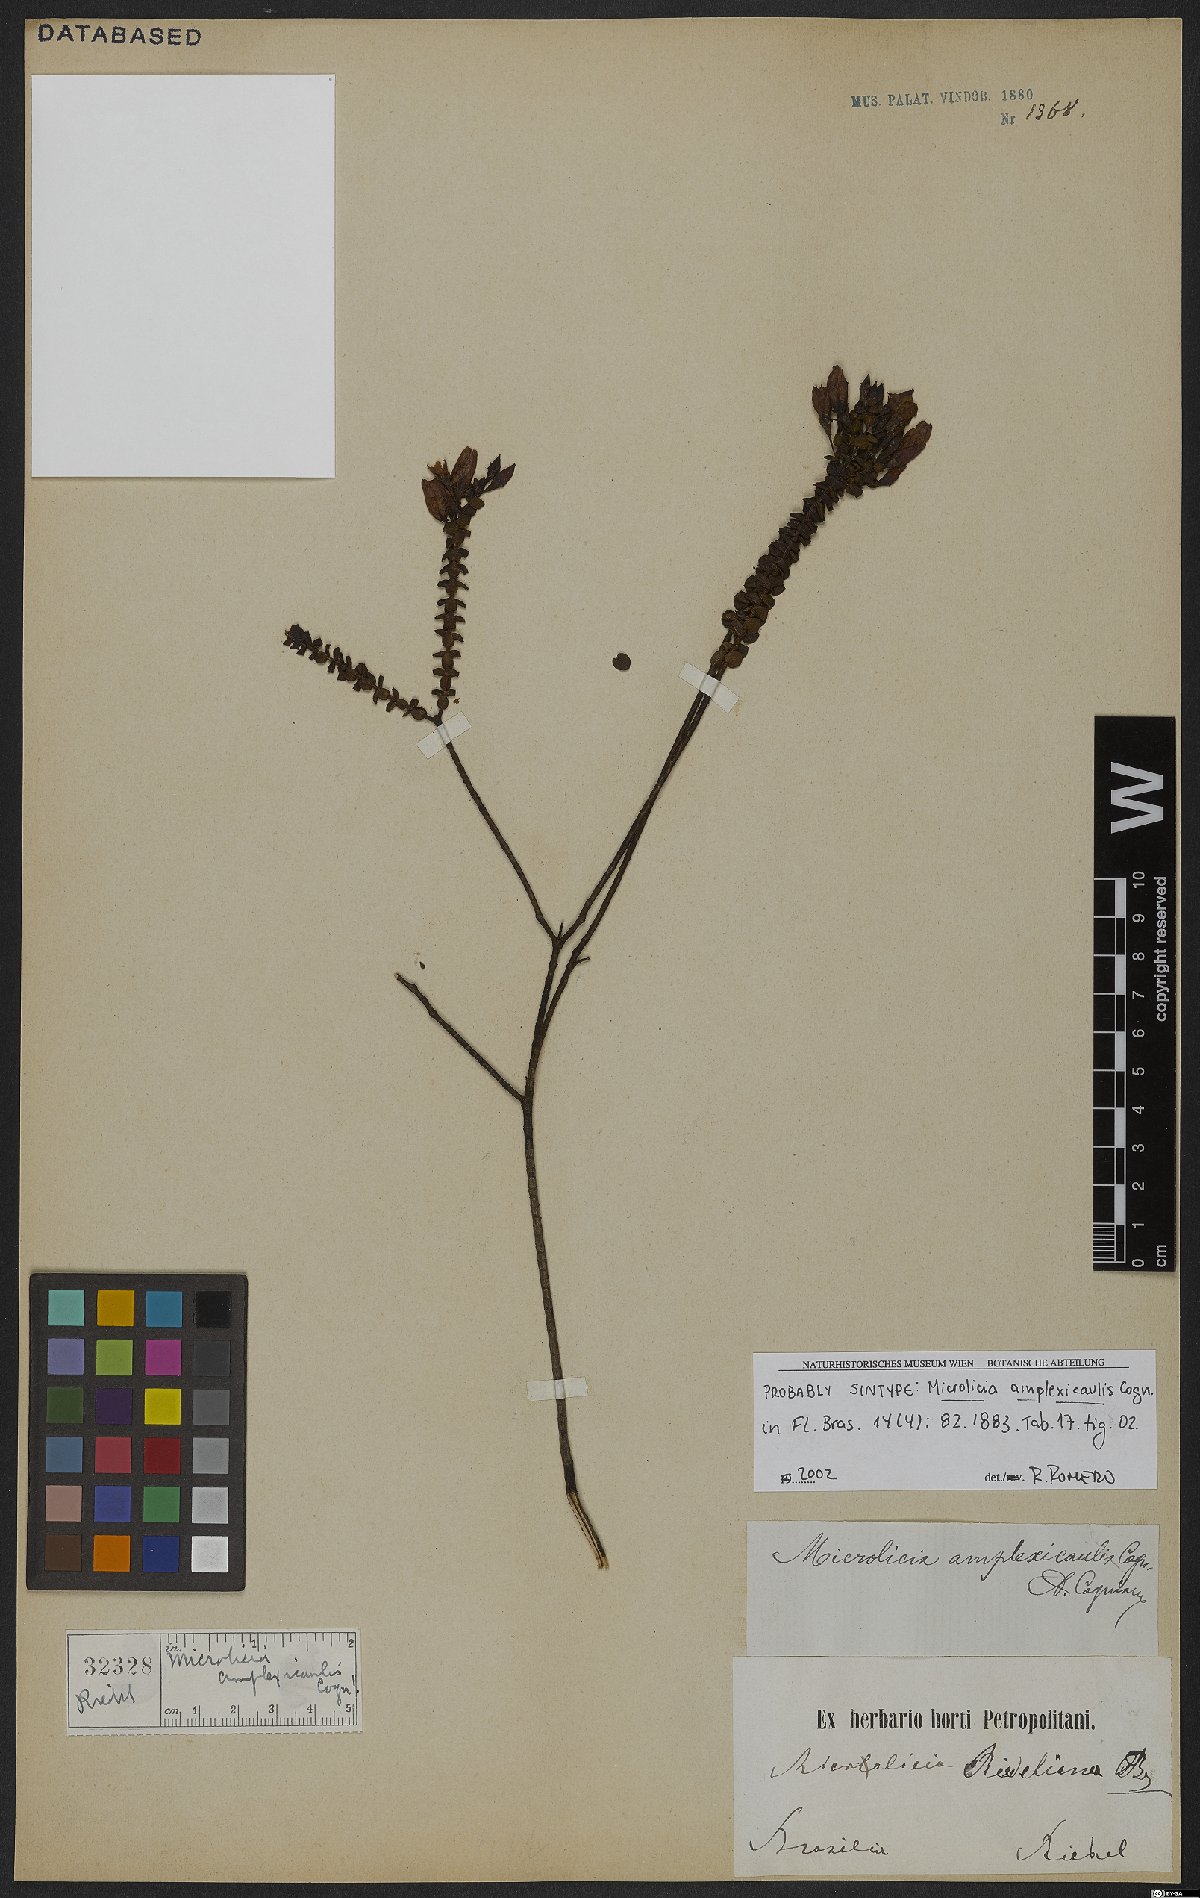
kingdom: Plantae
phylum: Tracheophyta
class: Magnoliopsida
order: Myrtales
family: Melastomataceae
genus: Microlicia
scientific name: Microlicia amplexicaulis
